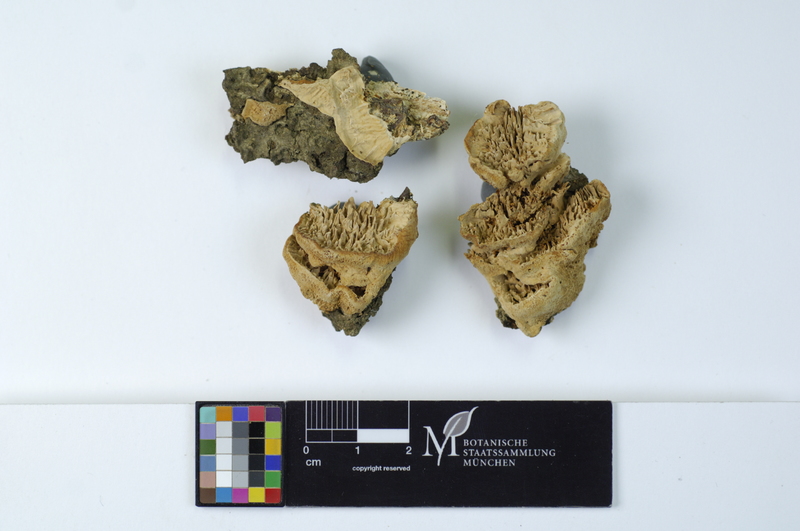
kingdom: Plantae
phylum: Tracheophyta
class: Magnoliopsida
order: Fagales
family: Fagaceae
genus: Fagus
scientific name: Fagus sylvatica
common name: Beech
